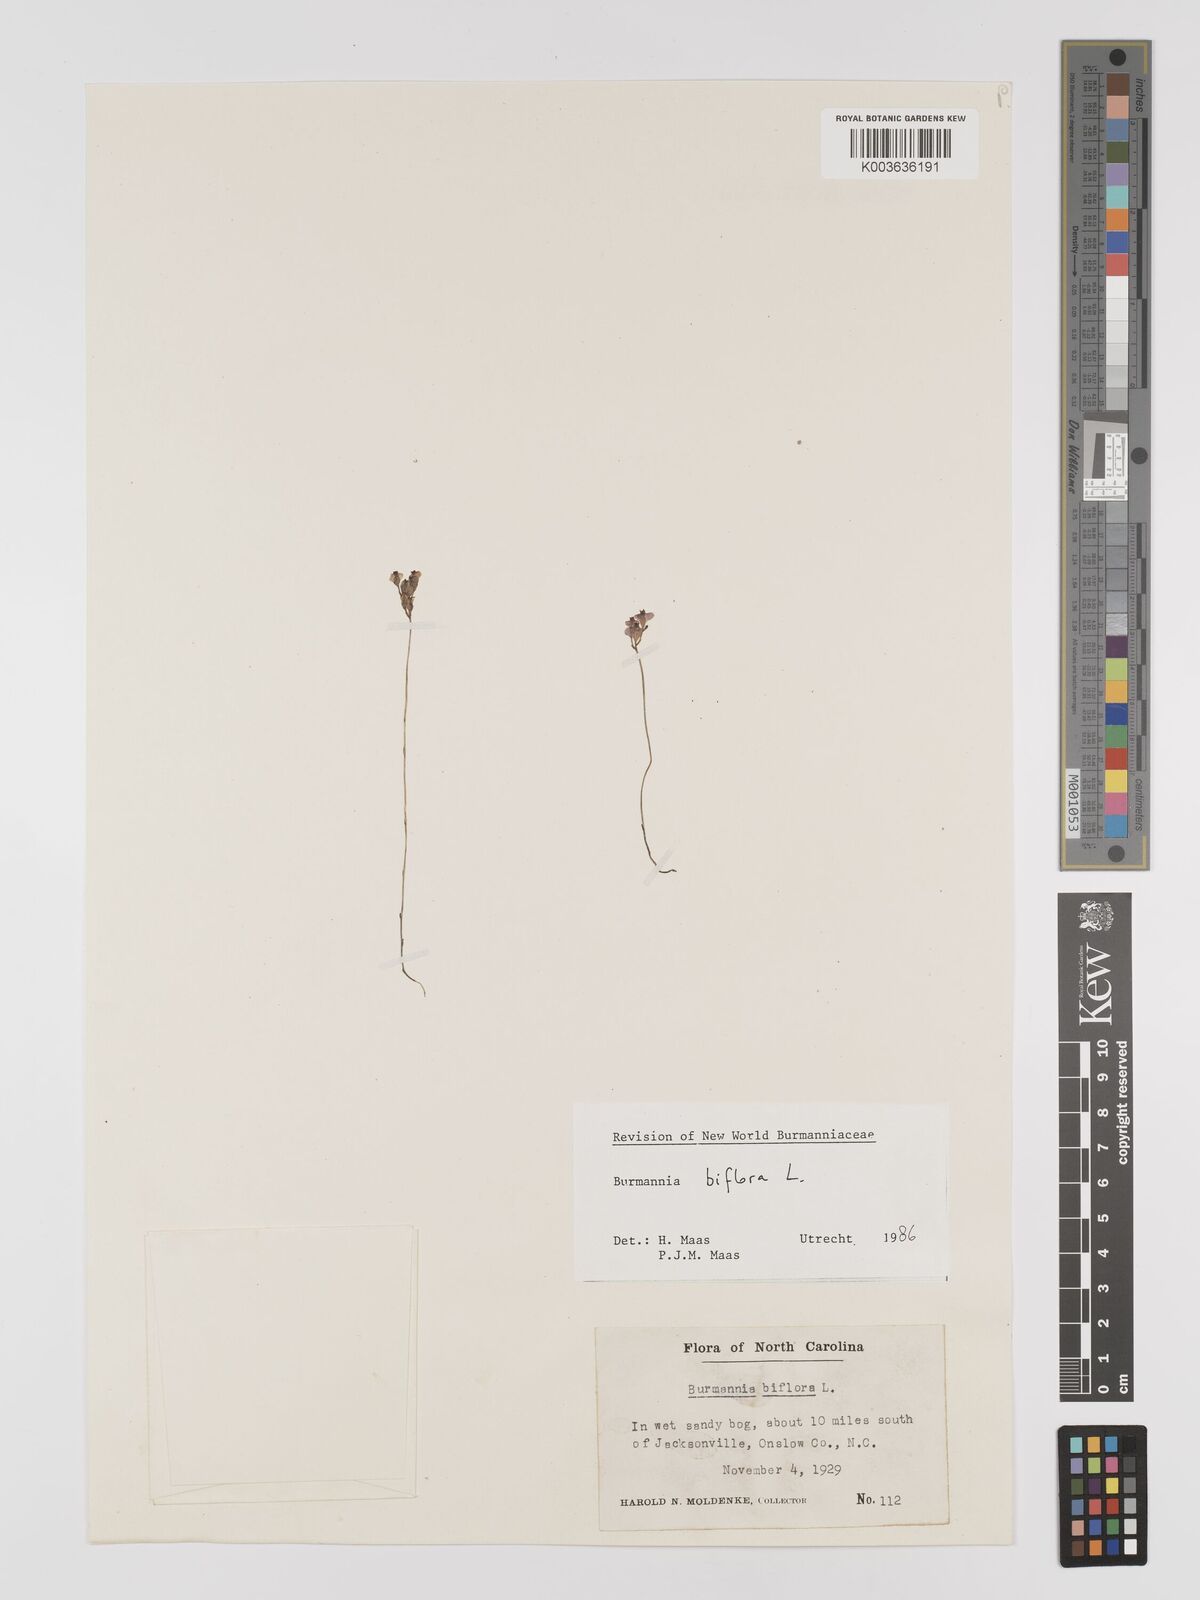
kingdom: Plantae
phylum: Tracheophyta
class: Liliopsida
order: Dioscoreales
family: Burmanniaceae
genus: Burmannia
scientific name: Burmannia biflora
